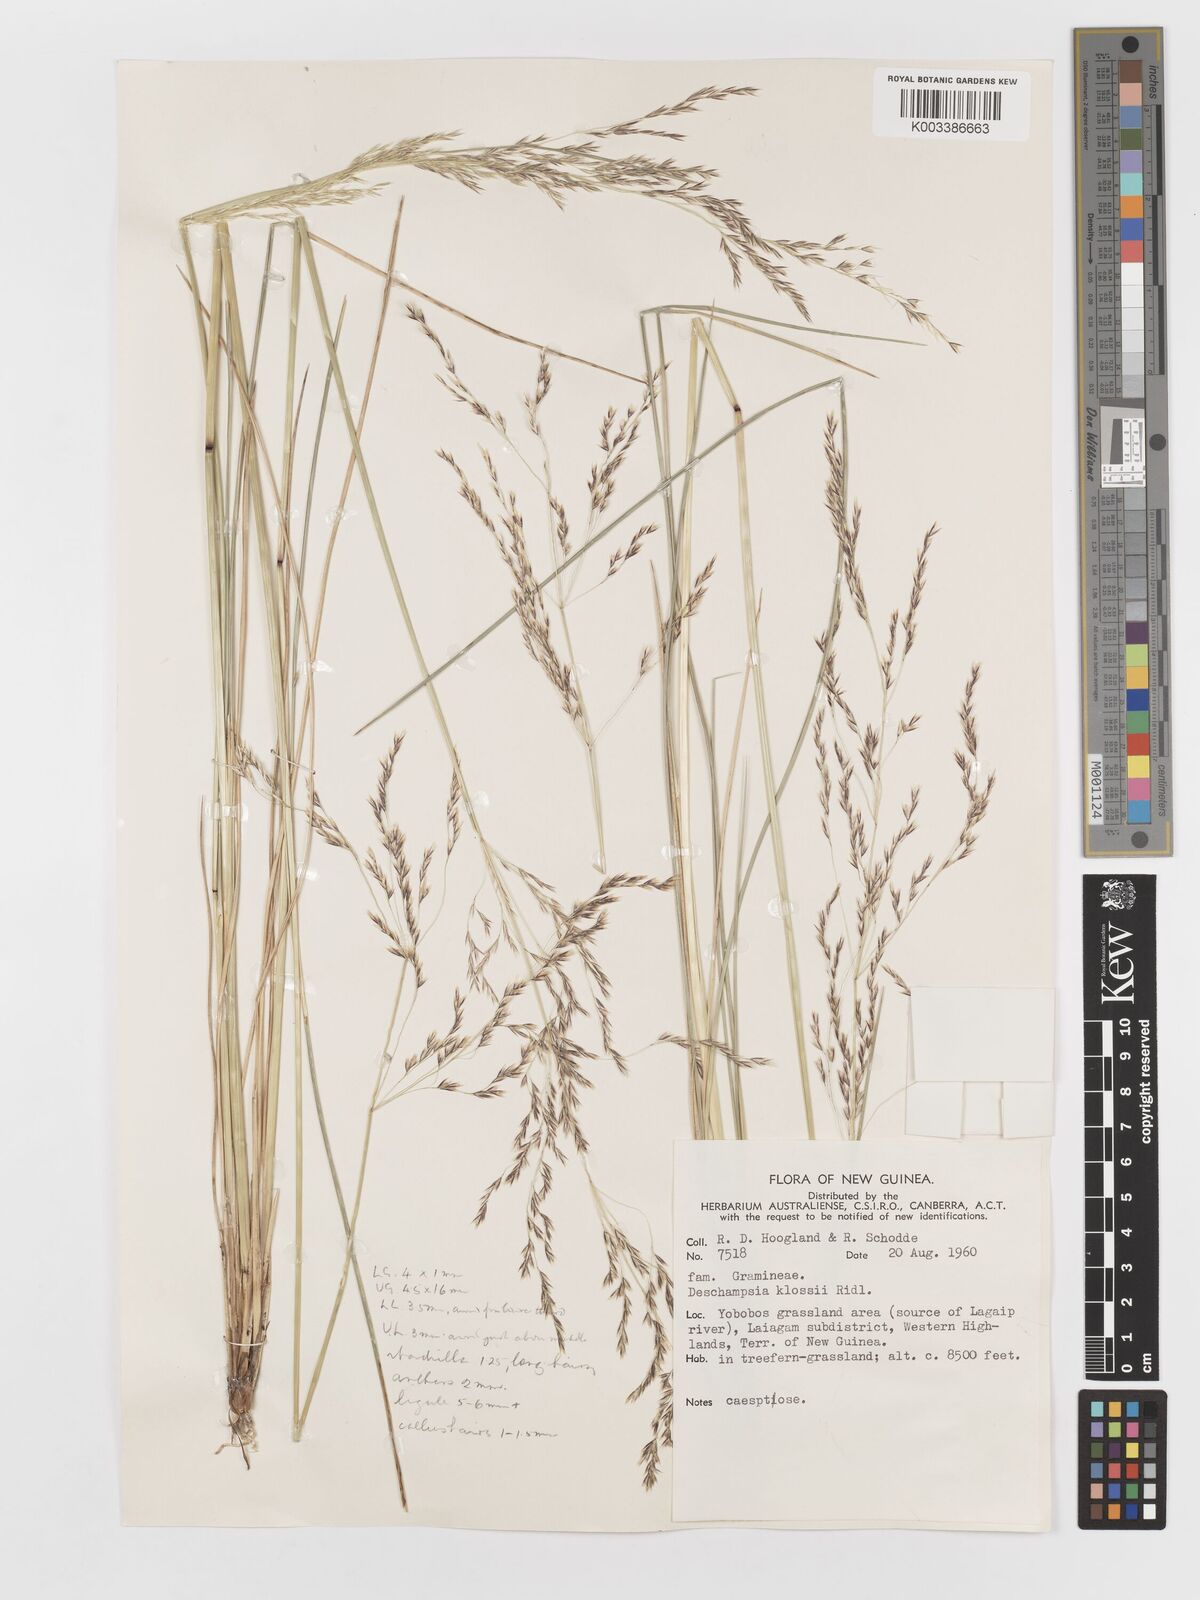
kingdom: Plantae
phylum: Tracheophyta
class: Liliopsida
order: Poales
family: Poaceae
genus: Deschampsia
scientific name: Deschampsia klossii
